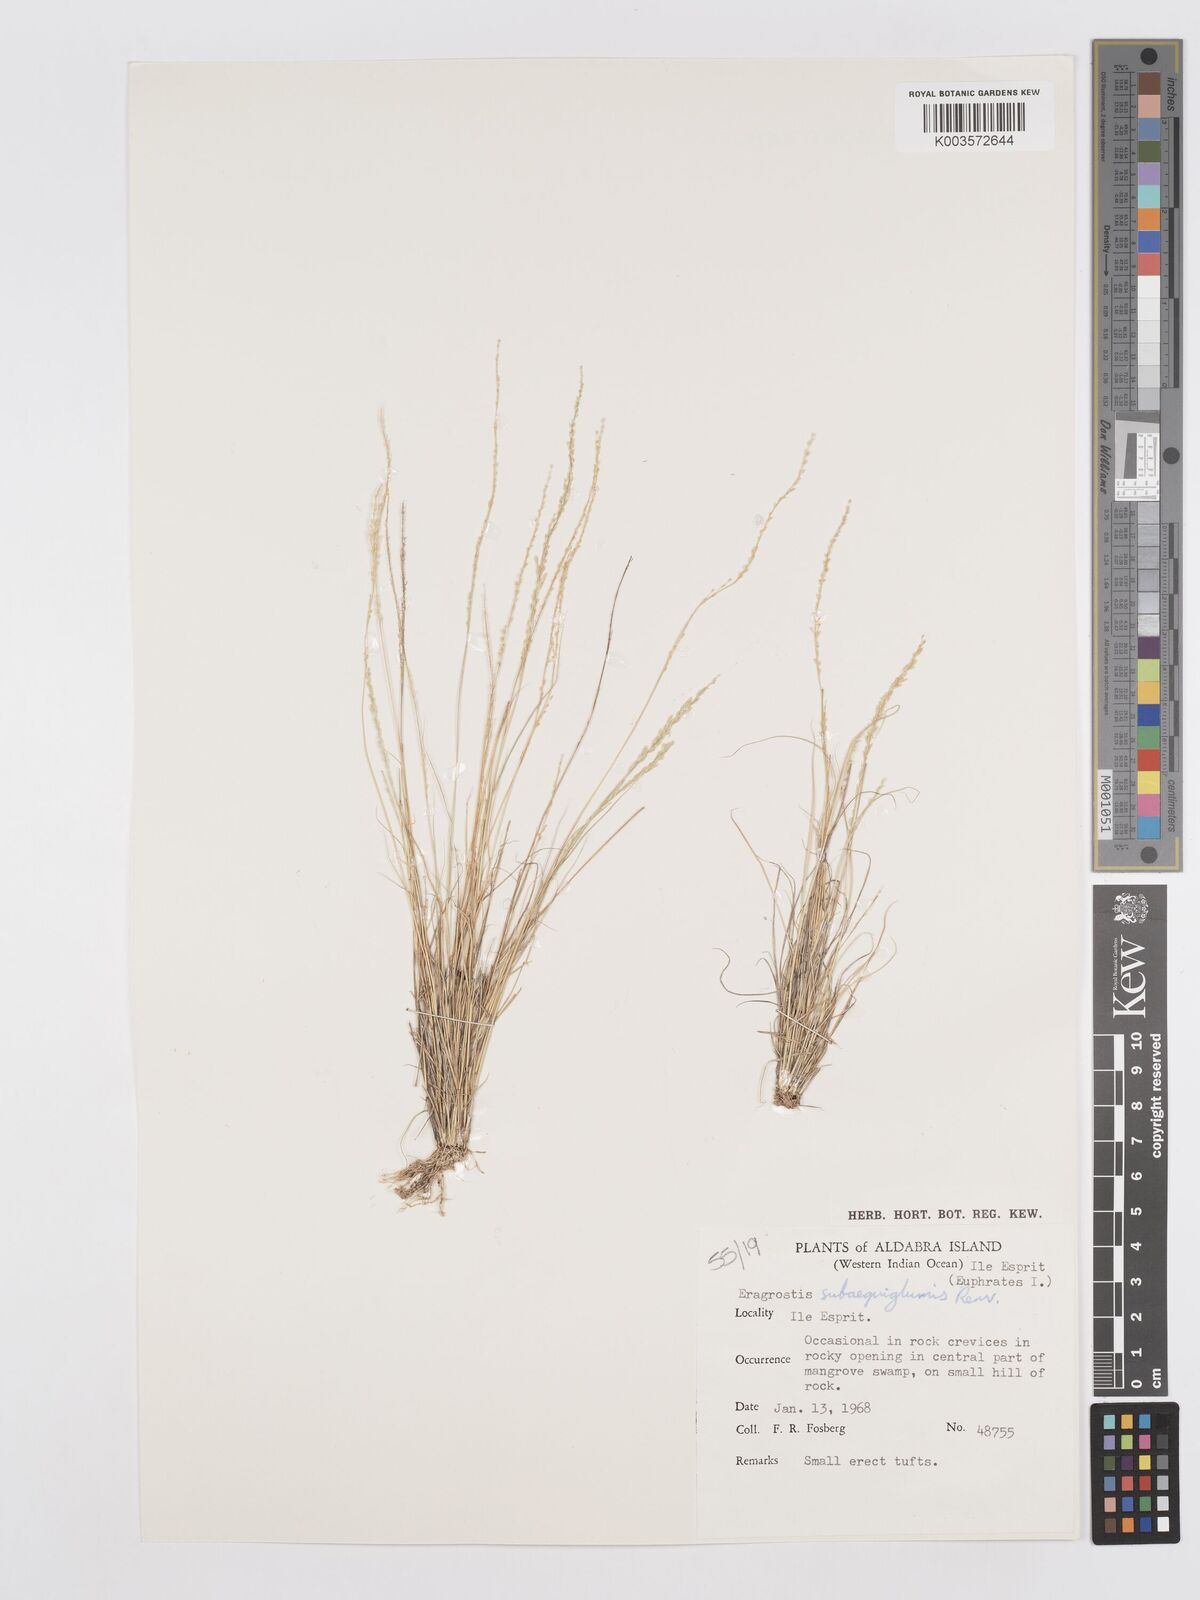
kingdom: Plantae
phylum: Tracheophyta
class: Liliopsida
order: Poales
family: Poaceae
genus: Eragrostis
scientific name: Eragrostis subaequiglumis
